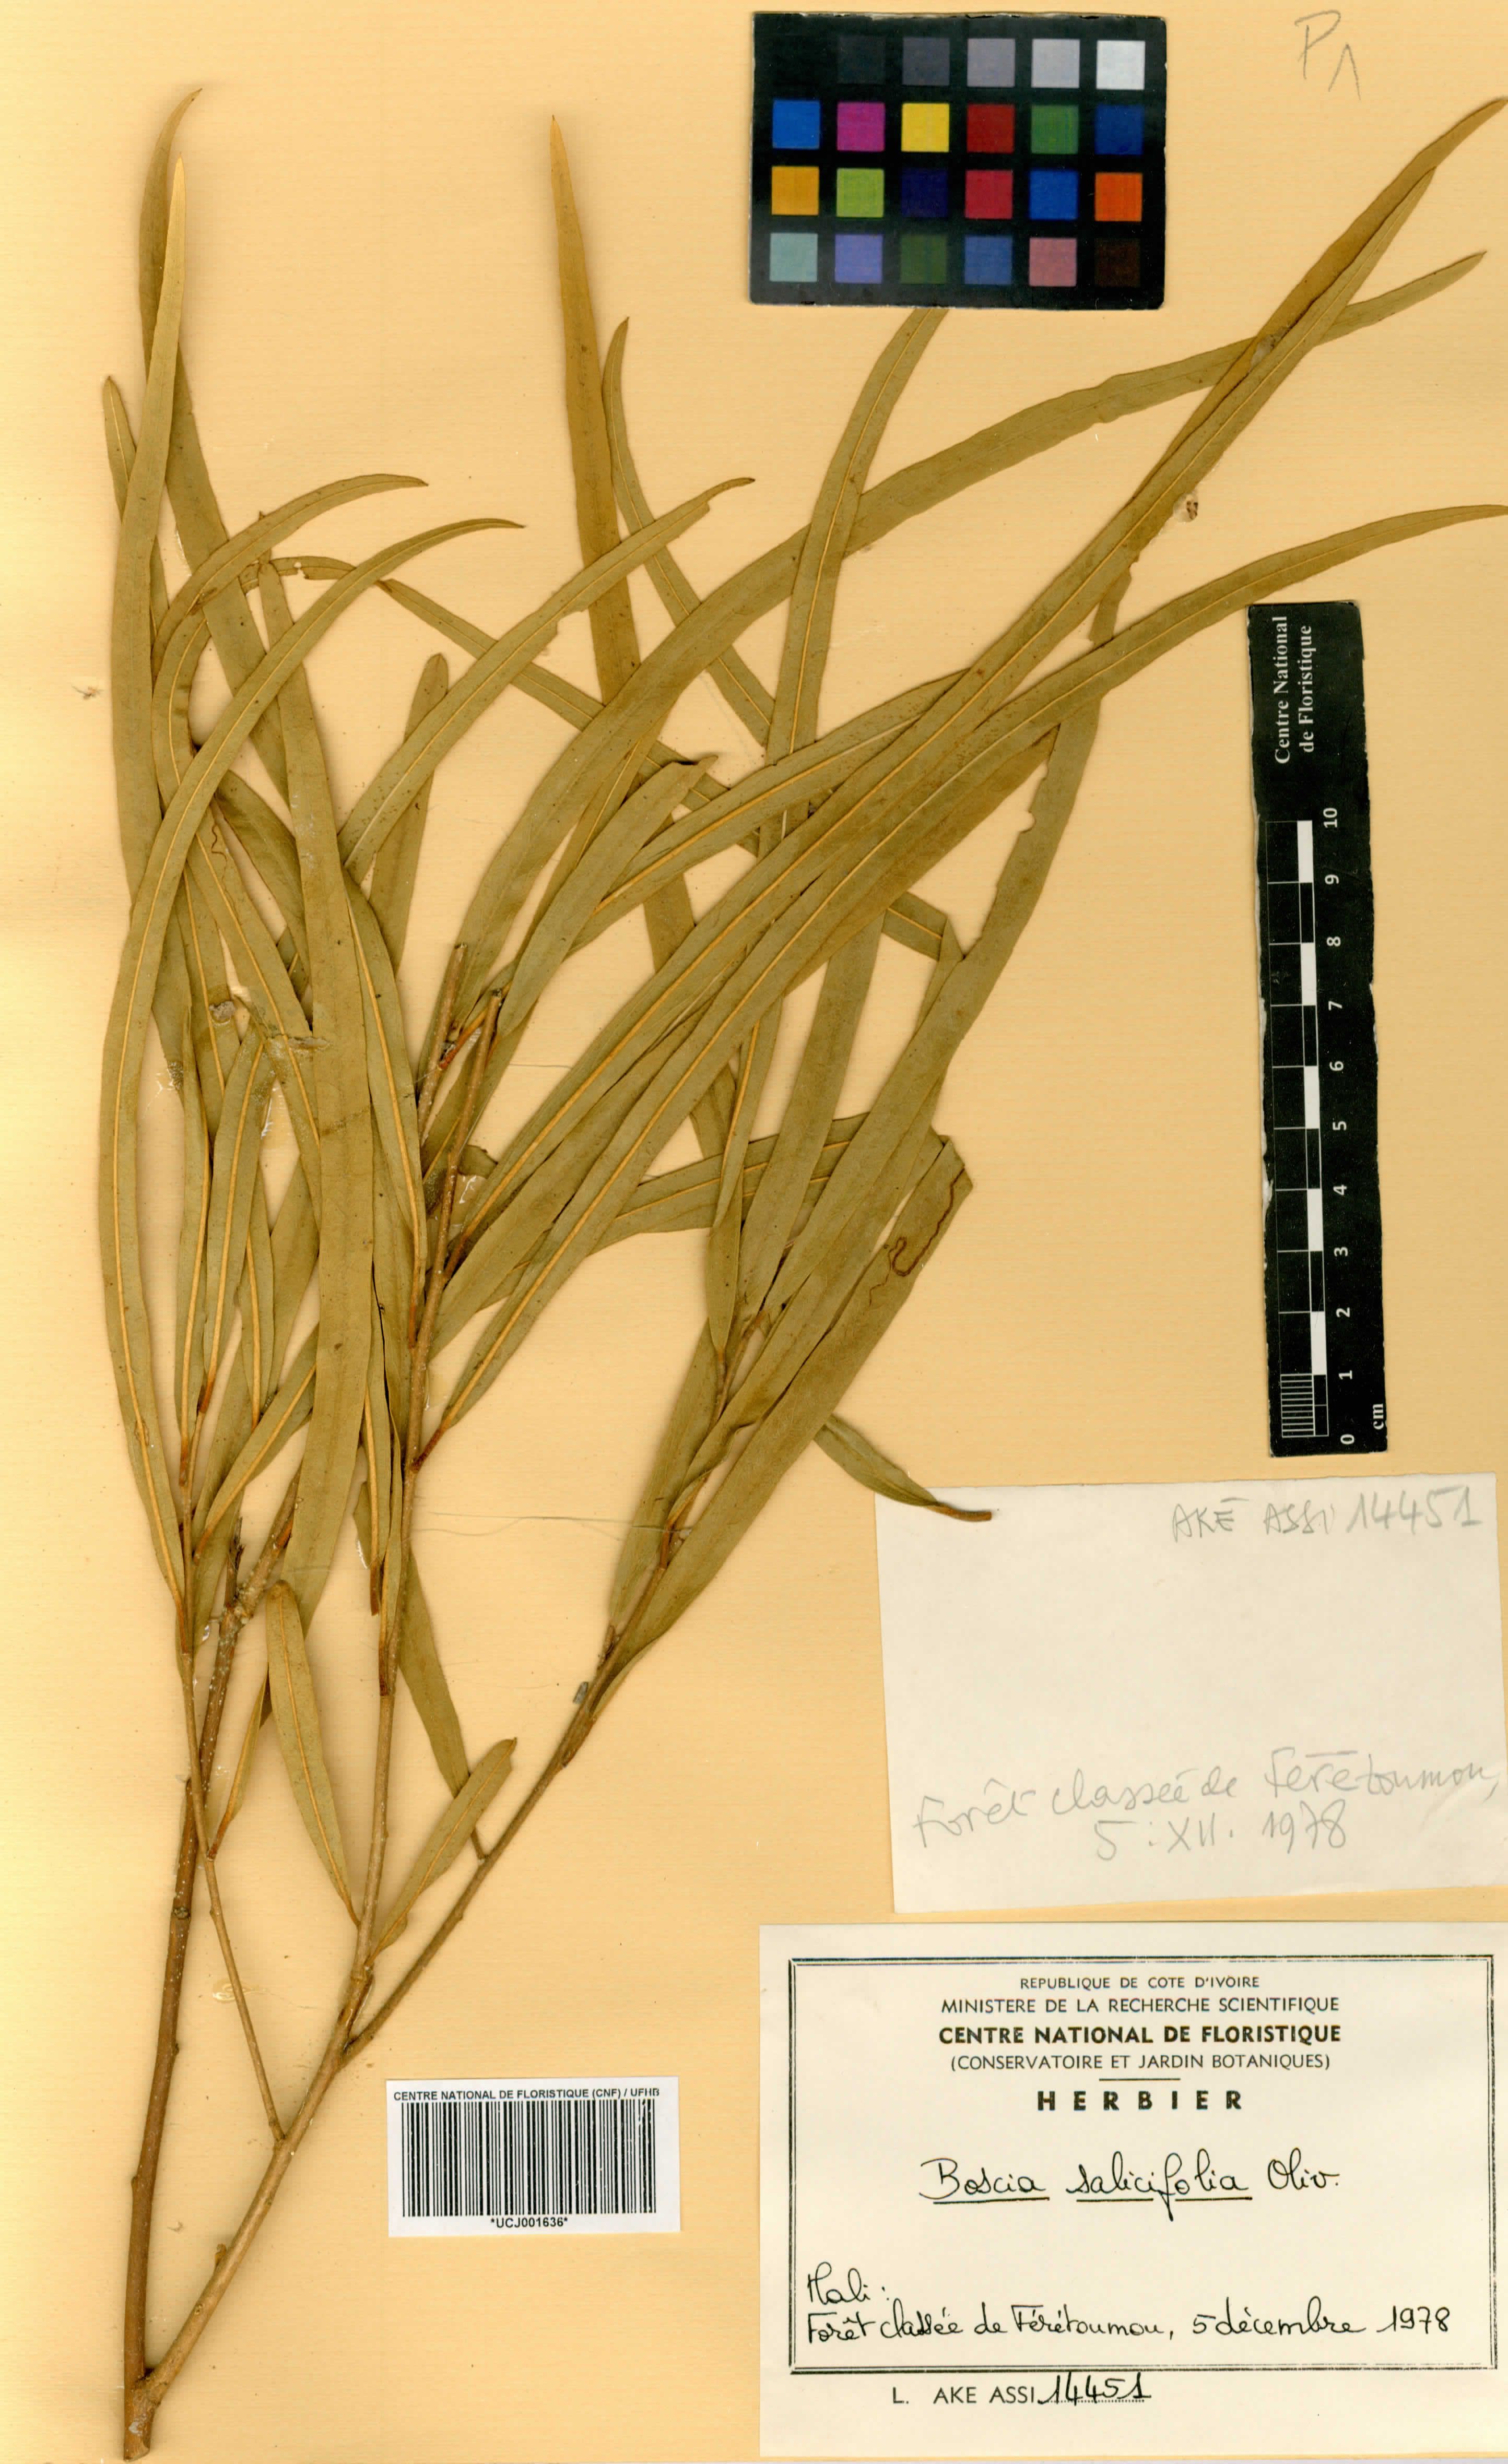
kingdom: Plantae
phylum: Tracheophyta
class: Magnoliopsida
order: Brassicales
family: Capparaceae
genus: Boscia
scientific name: Boscia salicifolia
